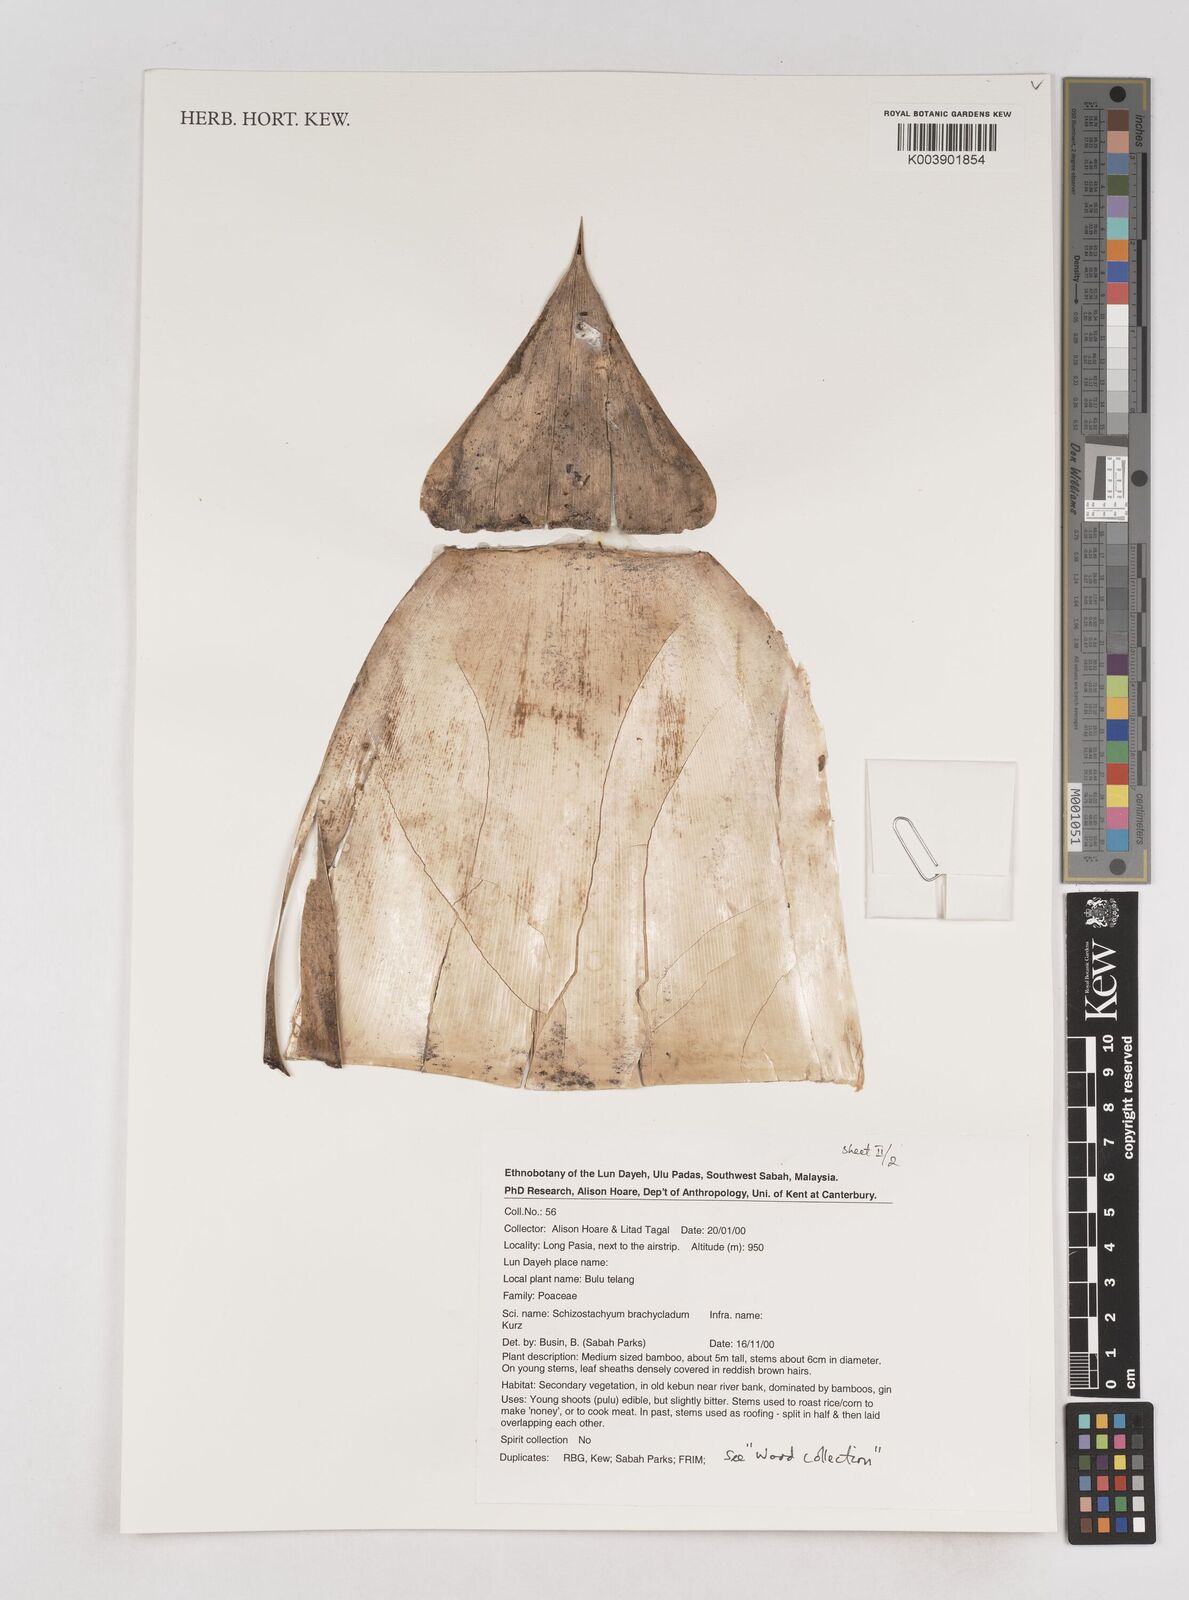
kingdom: Plantae
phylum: Tracheophyta
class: Liliopsida
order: Poales
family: Poaceae
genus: Schizostachyum
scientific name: Schizostachyum brachycladum
